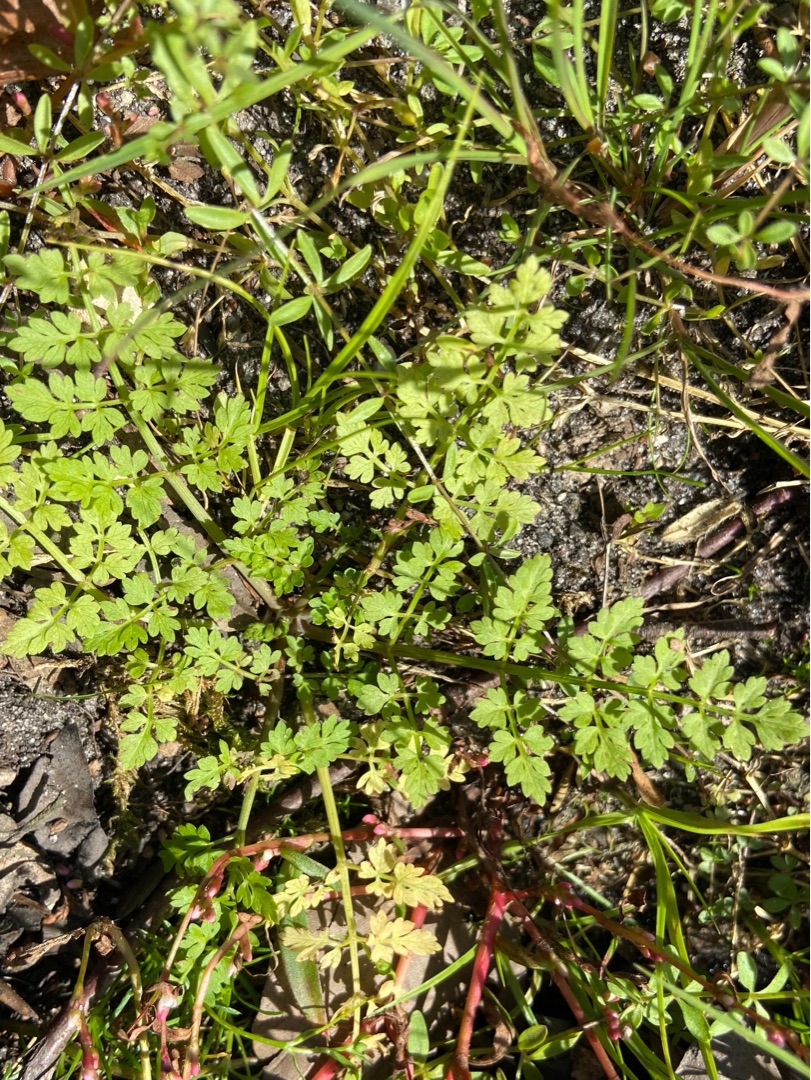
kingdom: Plantae
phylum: Tracheophyta
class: Magnoliopsida
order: Apiales
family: Apiaceae
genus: Oenanthe
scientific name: Oenanthe aquatica
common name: Billebo-klaseskærm
